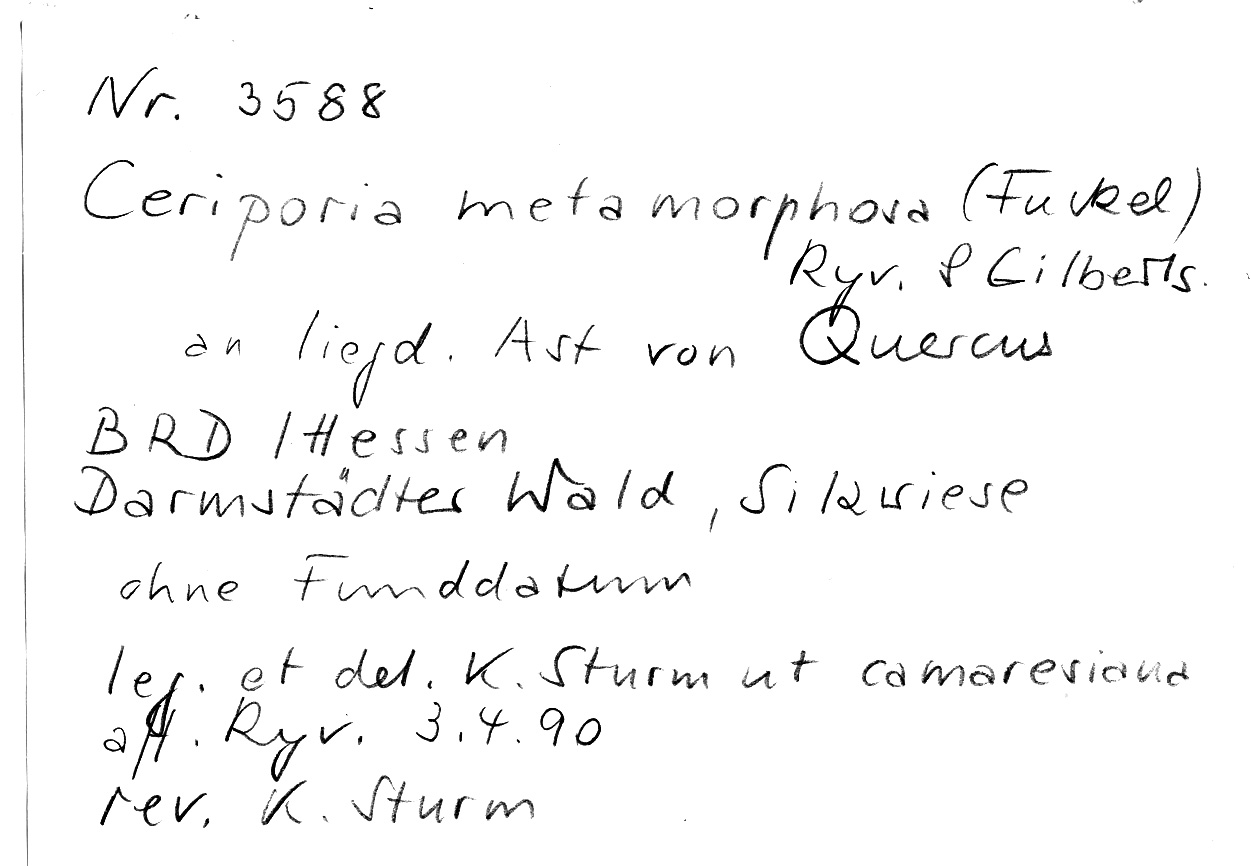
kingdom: Plantae
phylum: Tracheophyta
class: Magnoliopsida
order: Fagales
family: Fagaceae
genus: Quercus
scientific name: Quercus
